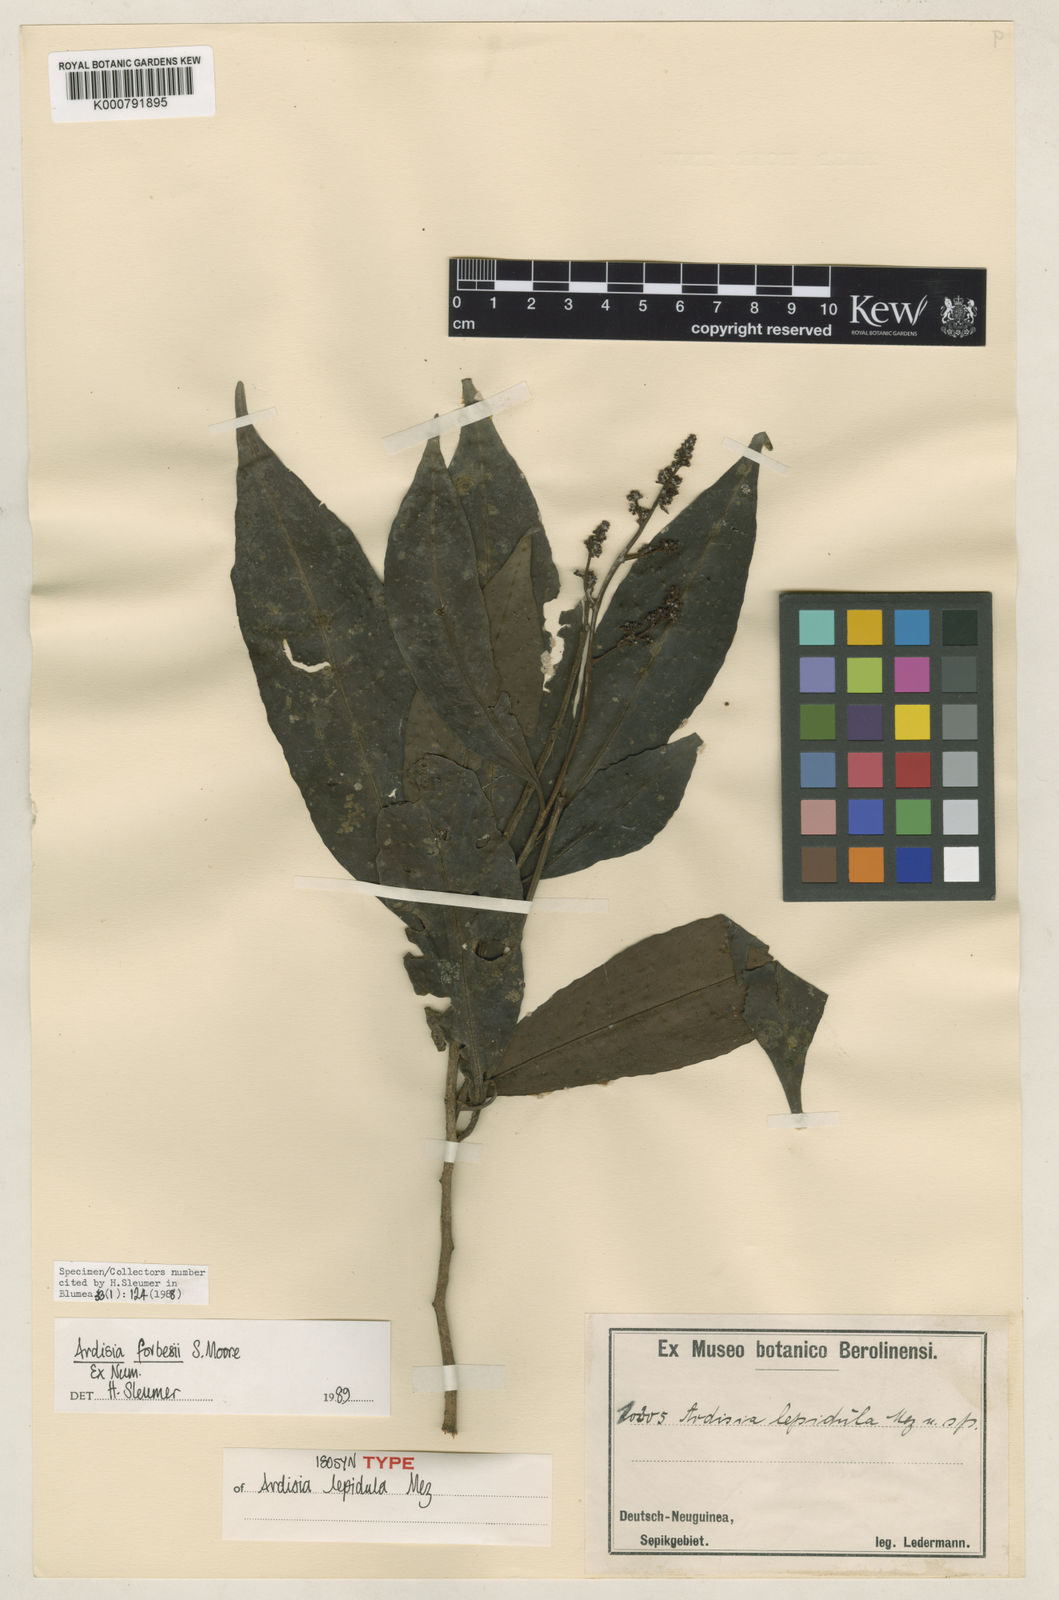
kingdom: Plantae
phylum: Tracheophyta
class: Magnoliopsida
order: Ericales
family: Primulaceae
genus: Ardisia
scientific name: Ardisia forbesii
